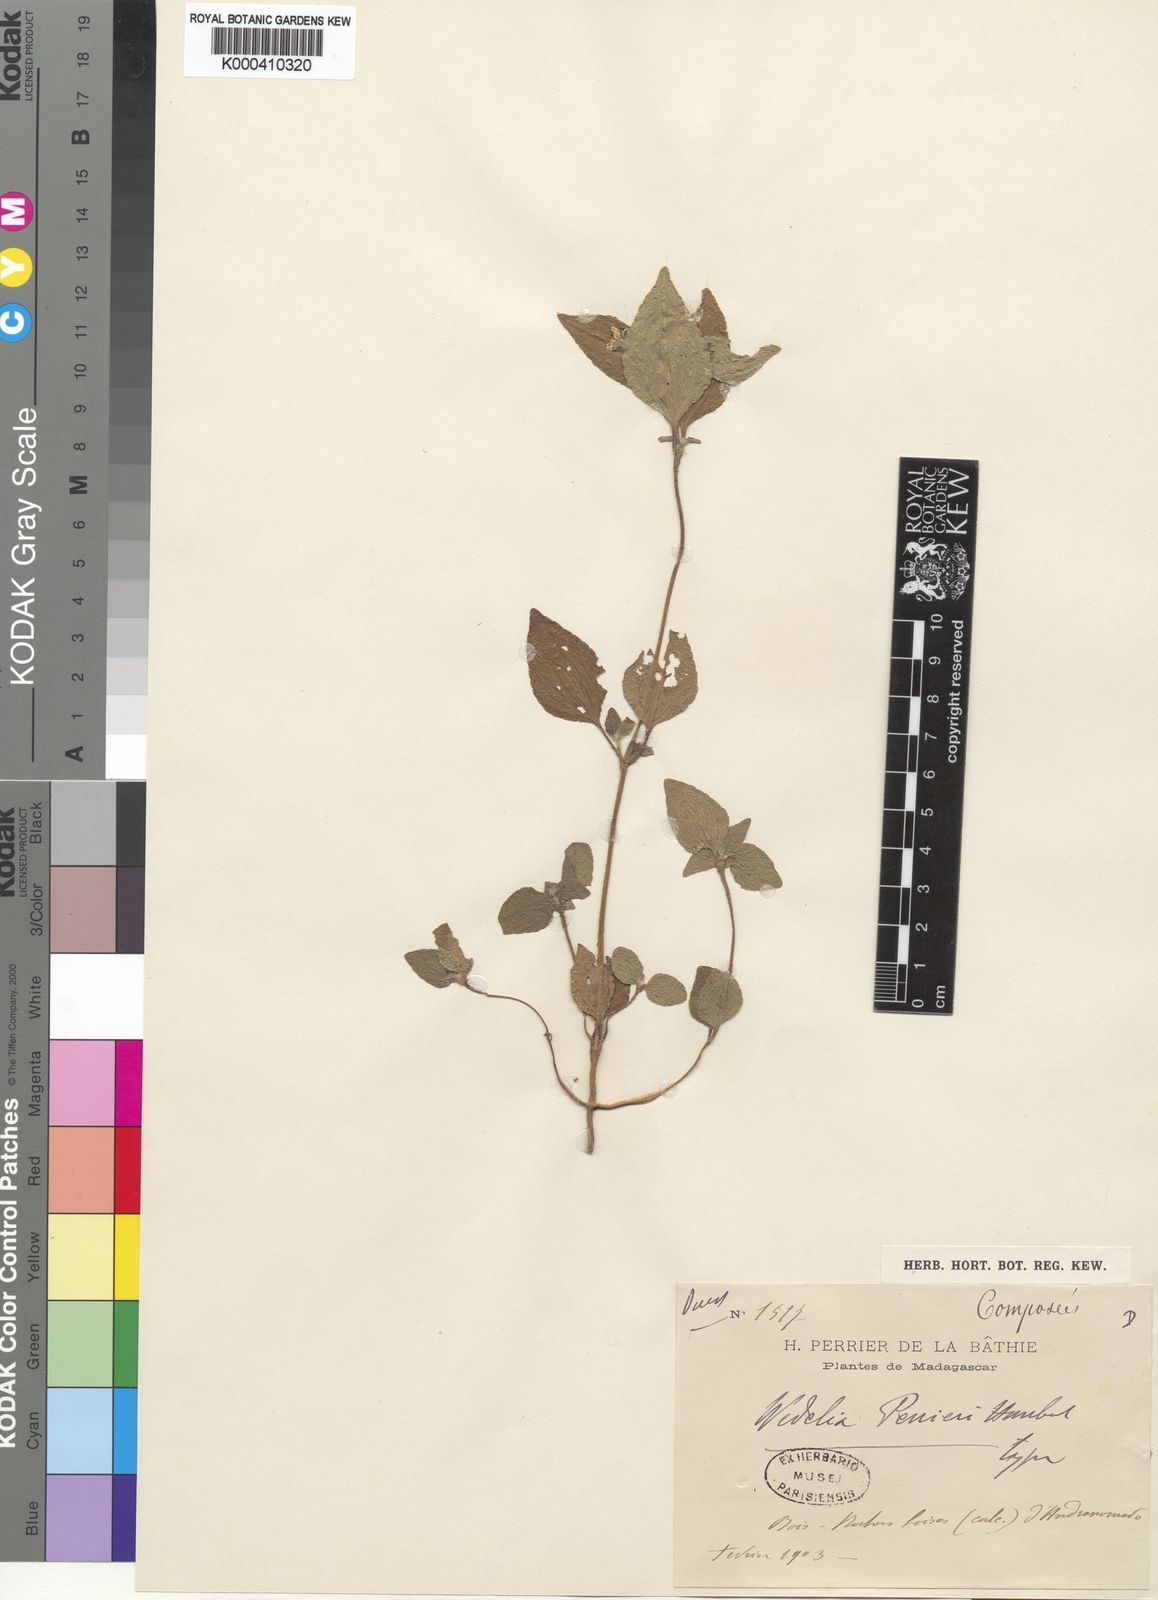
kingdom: Plantae
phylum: Tracheophyta
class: Magnoliopsida
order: Asterales
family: Asteraceae
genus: Aspilia
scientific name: Aspilia perrieri
